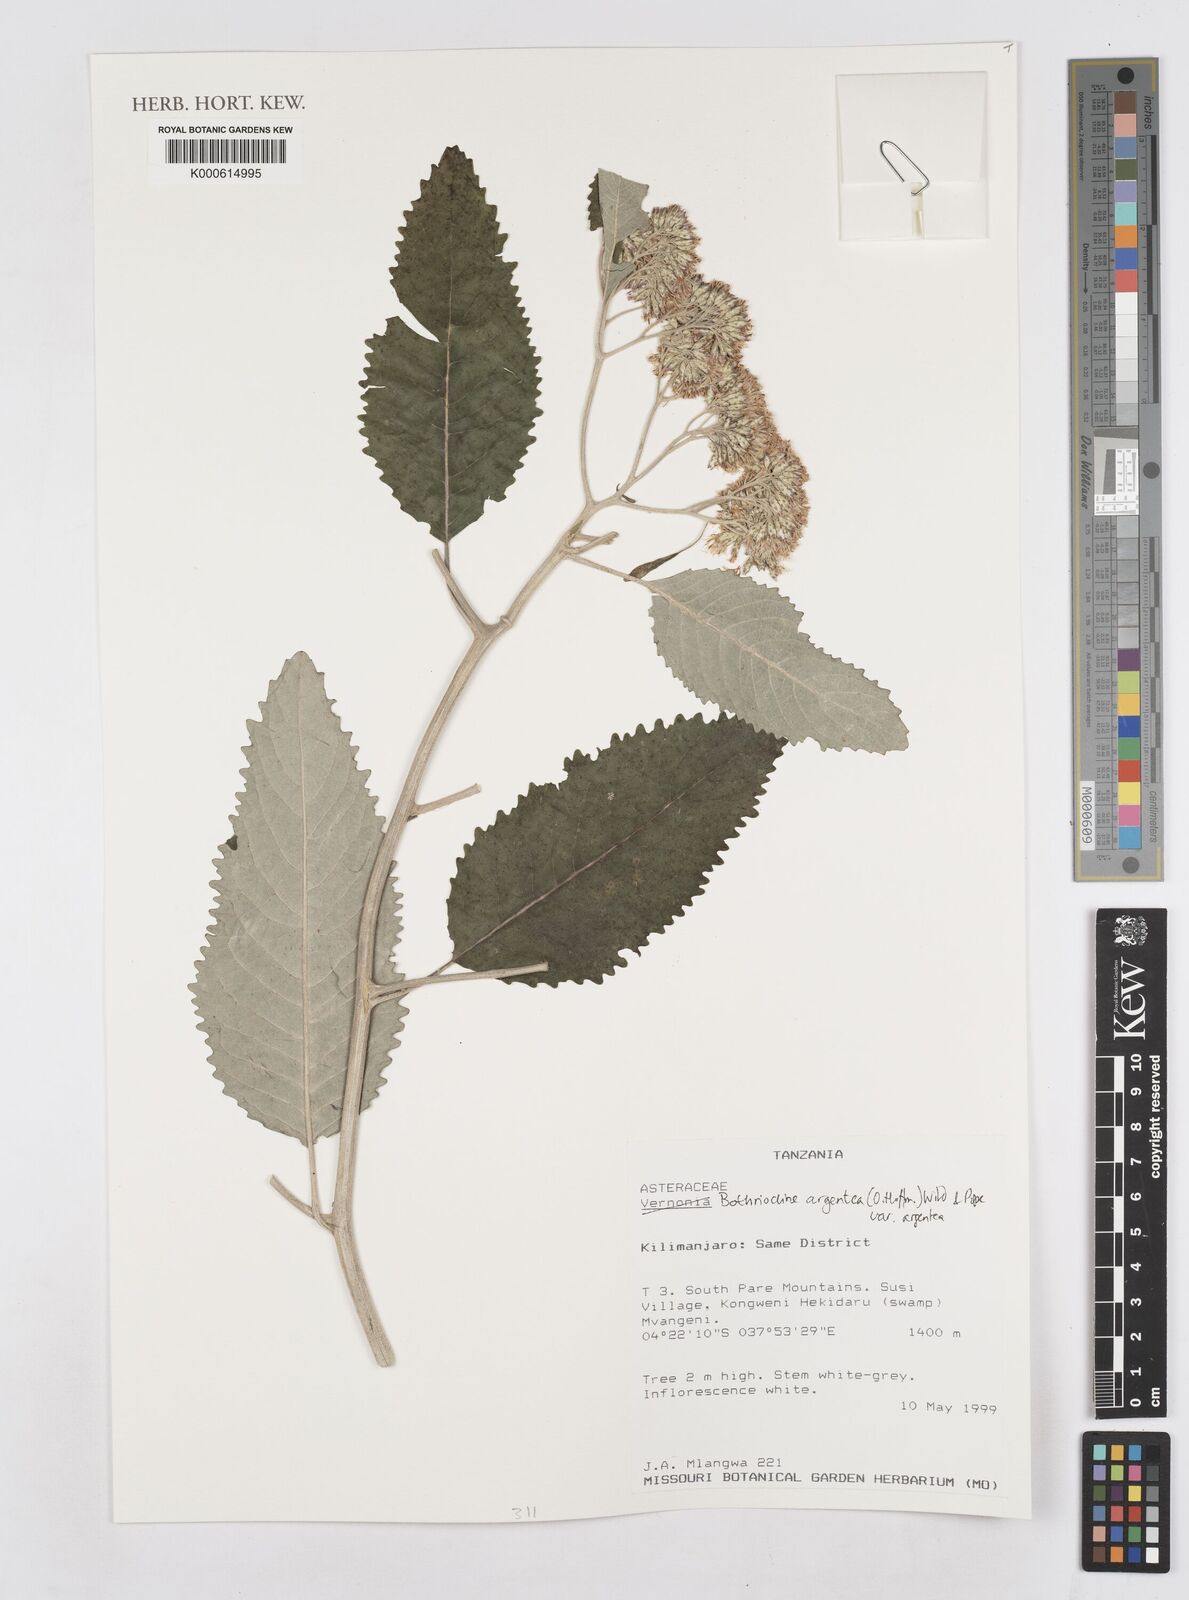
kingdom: Plantae
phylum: Tracheophyta
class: Magnoliopsida
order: Asterales
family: Asteraceae
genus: Bothriocline
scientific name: Bothriocline argentea
